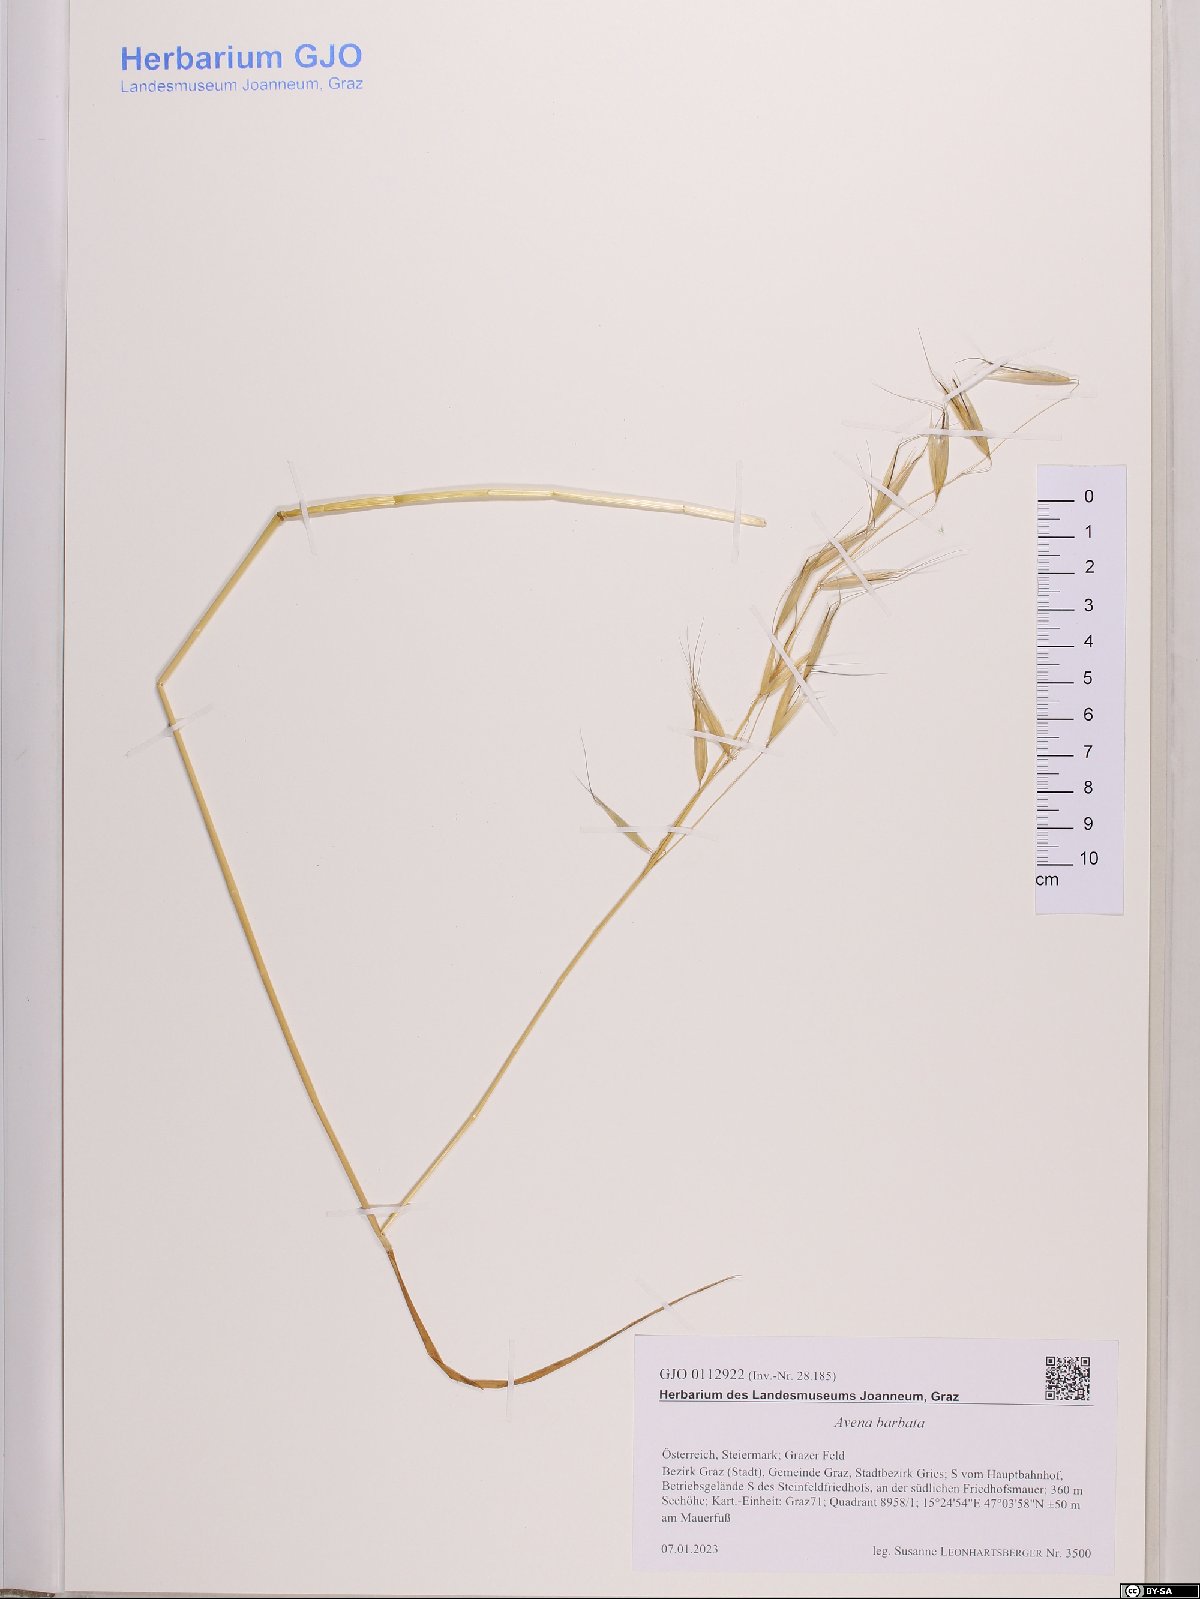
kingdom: Plantae
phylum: Tracheophyta
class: Liliopsida
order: Poales
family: Poaceae
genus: Avena
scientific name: Avena barbata
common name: Slender oat
